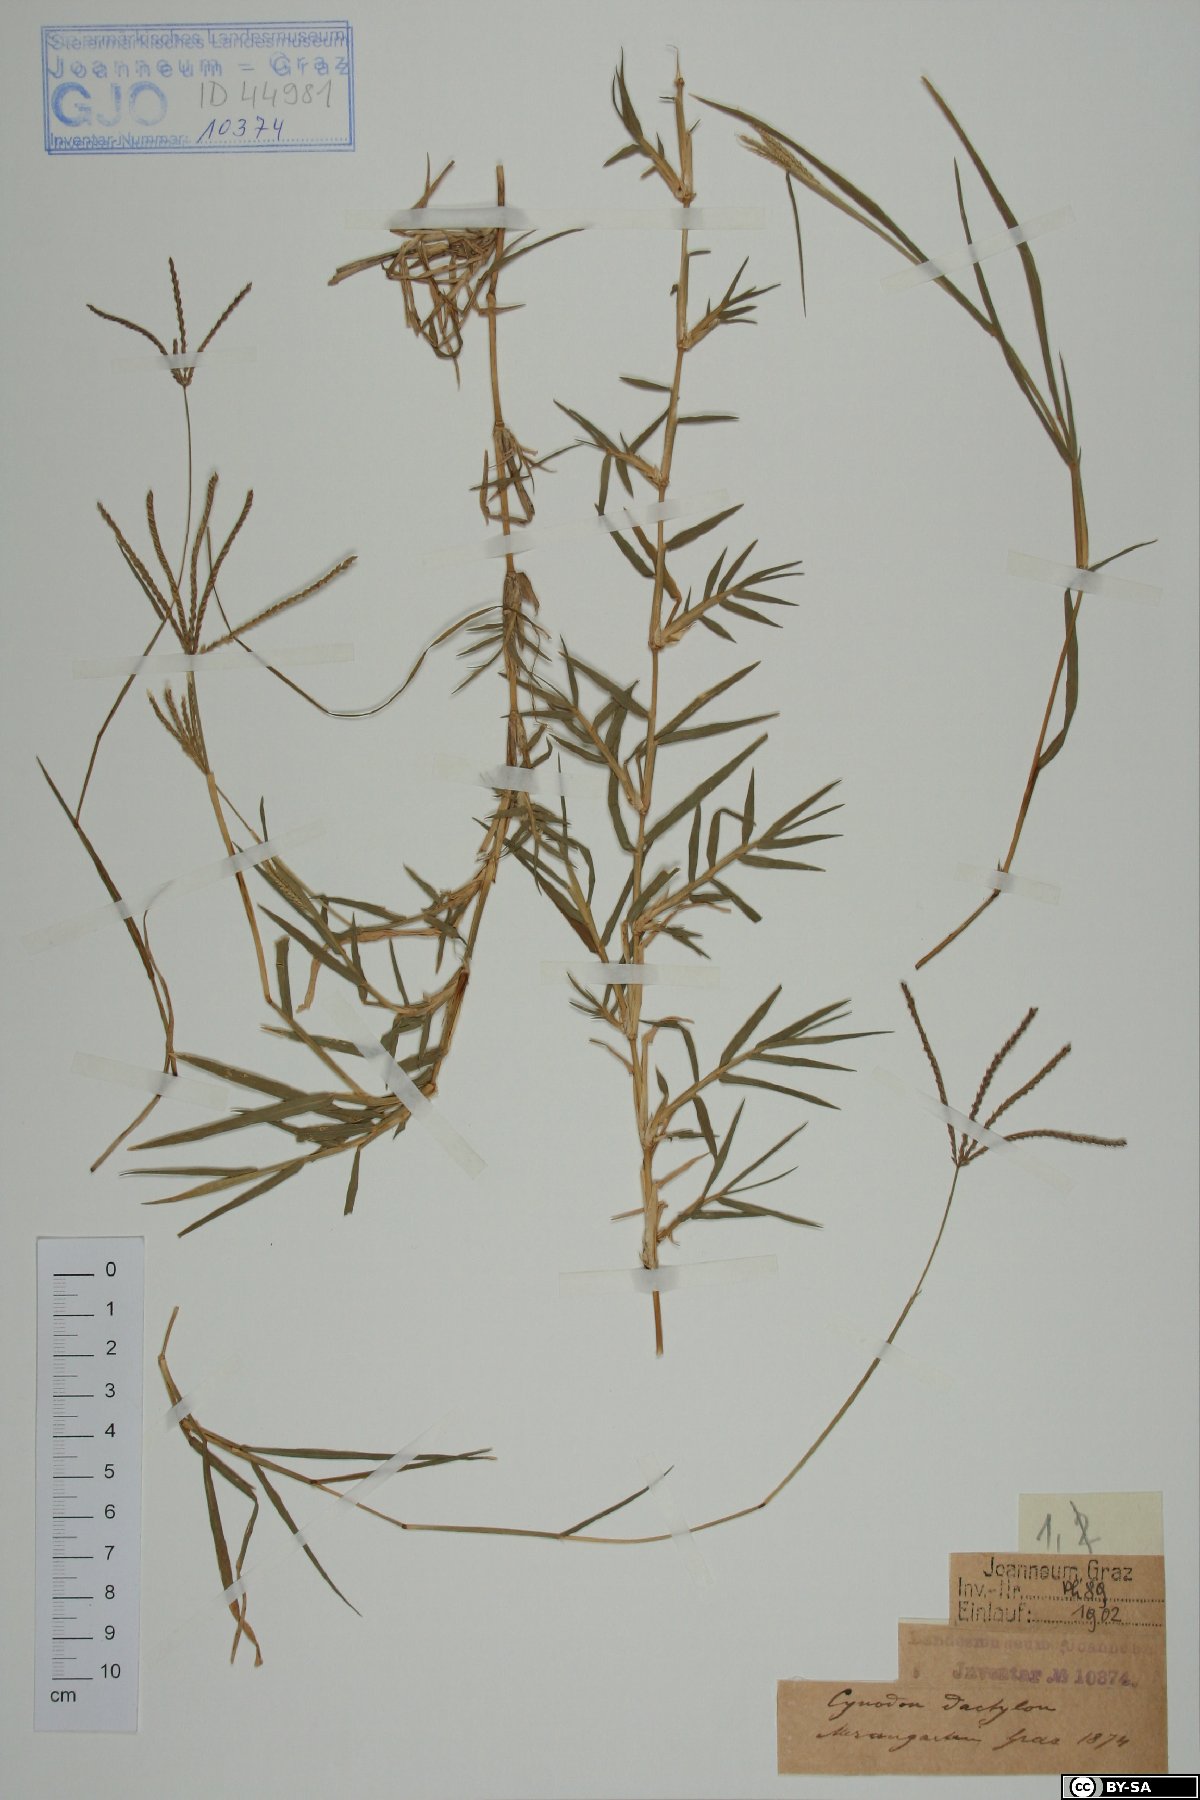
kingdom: Plantae
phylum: Tracheophyta
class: Liliopsida
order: Poales
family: Poaceae
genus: Cynodon
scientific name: Cynodon dactylon
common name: Bermuda grass
